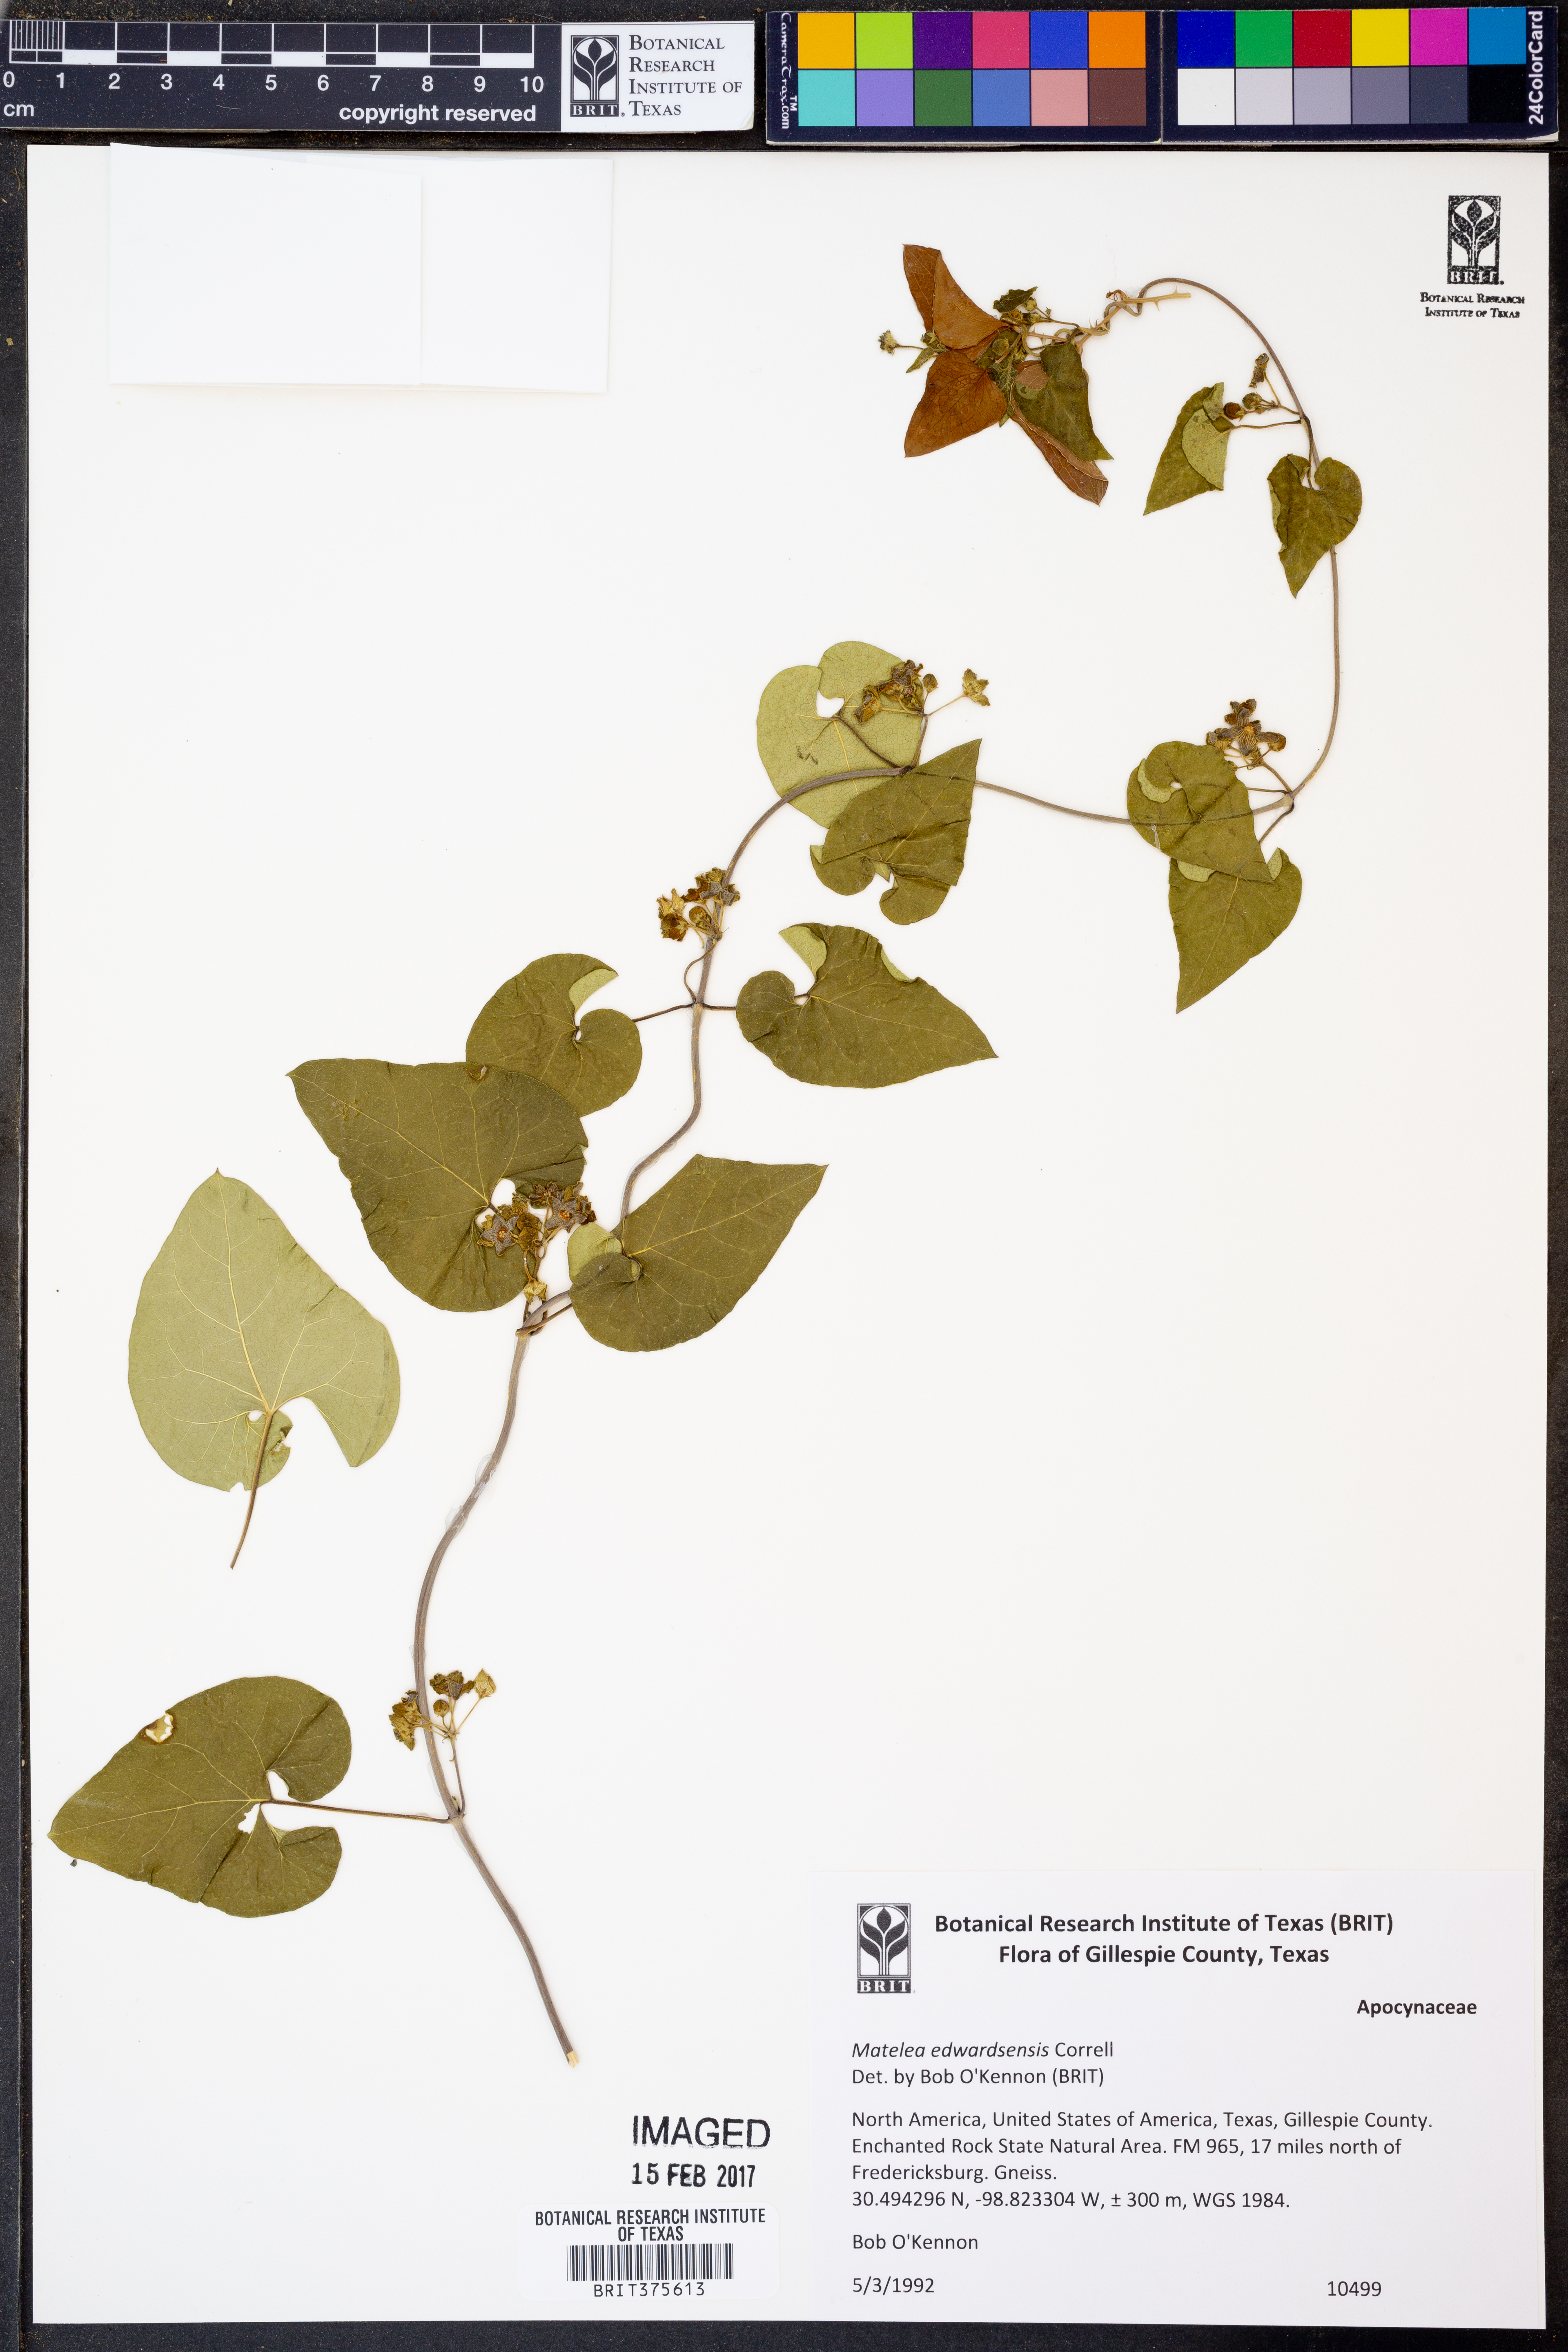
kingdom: Plantae
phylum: Tracheophyta
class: Magnoliopsida
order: Gentianales
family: Apocynaceae
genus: Matelea
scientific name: Matelea edwardsensis
